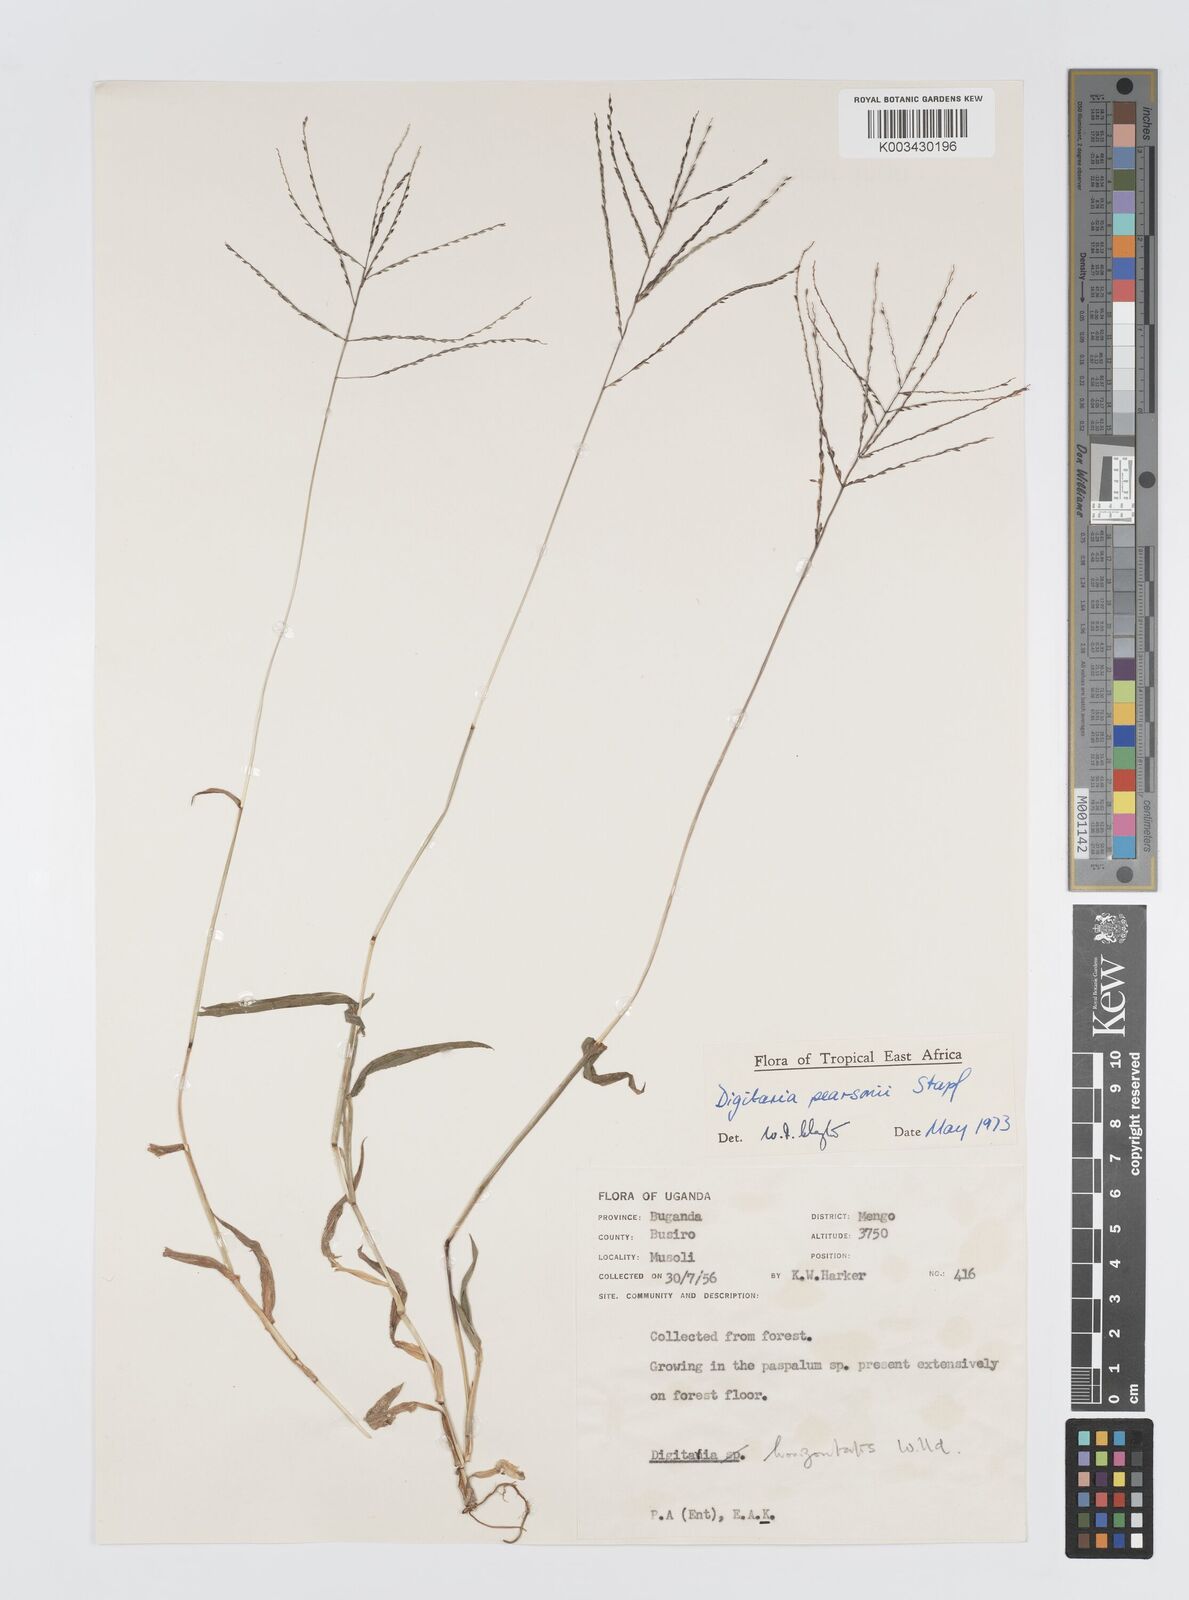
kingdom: Plantae
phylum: Tracheophyta
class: Liliopsida
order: Poales
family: Poaceae
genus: Digitaria
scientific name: Digitaria pearsonii
